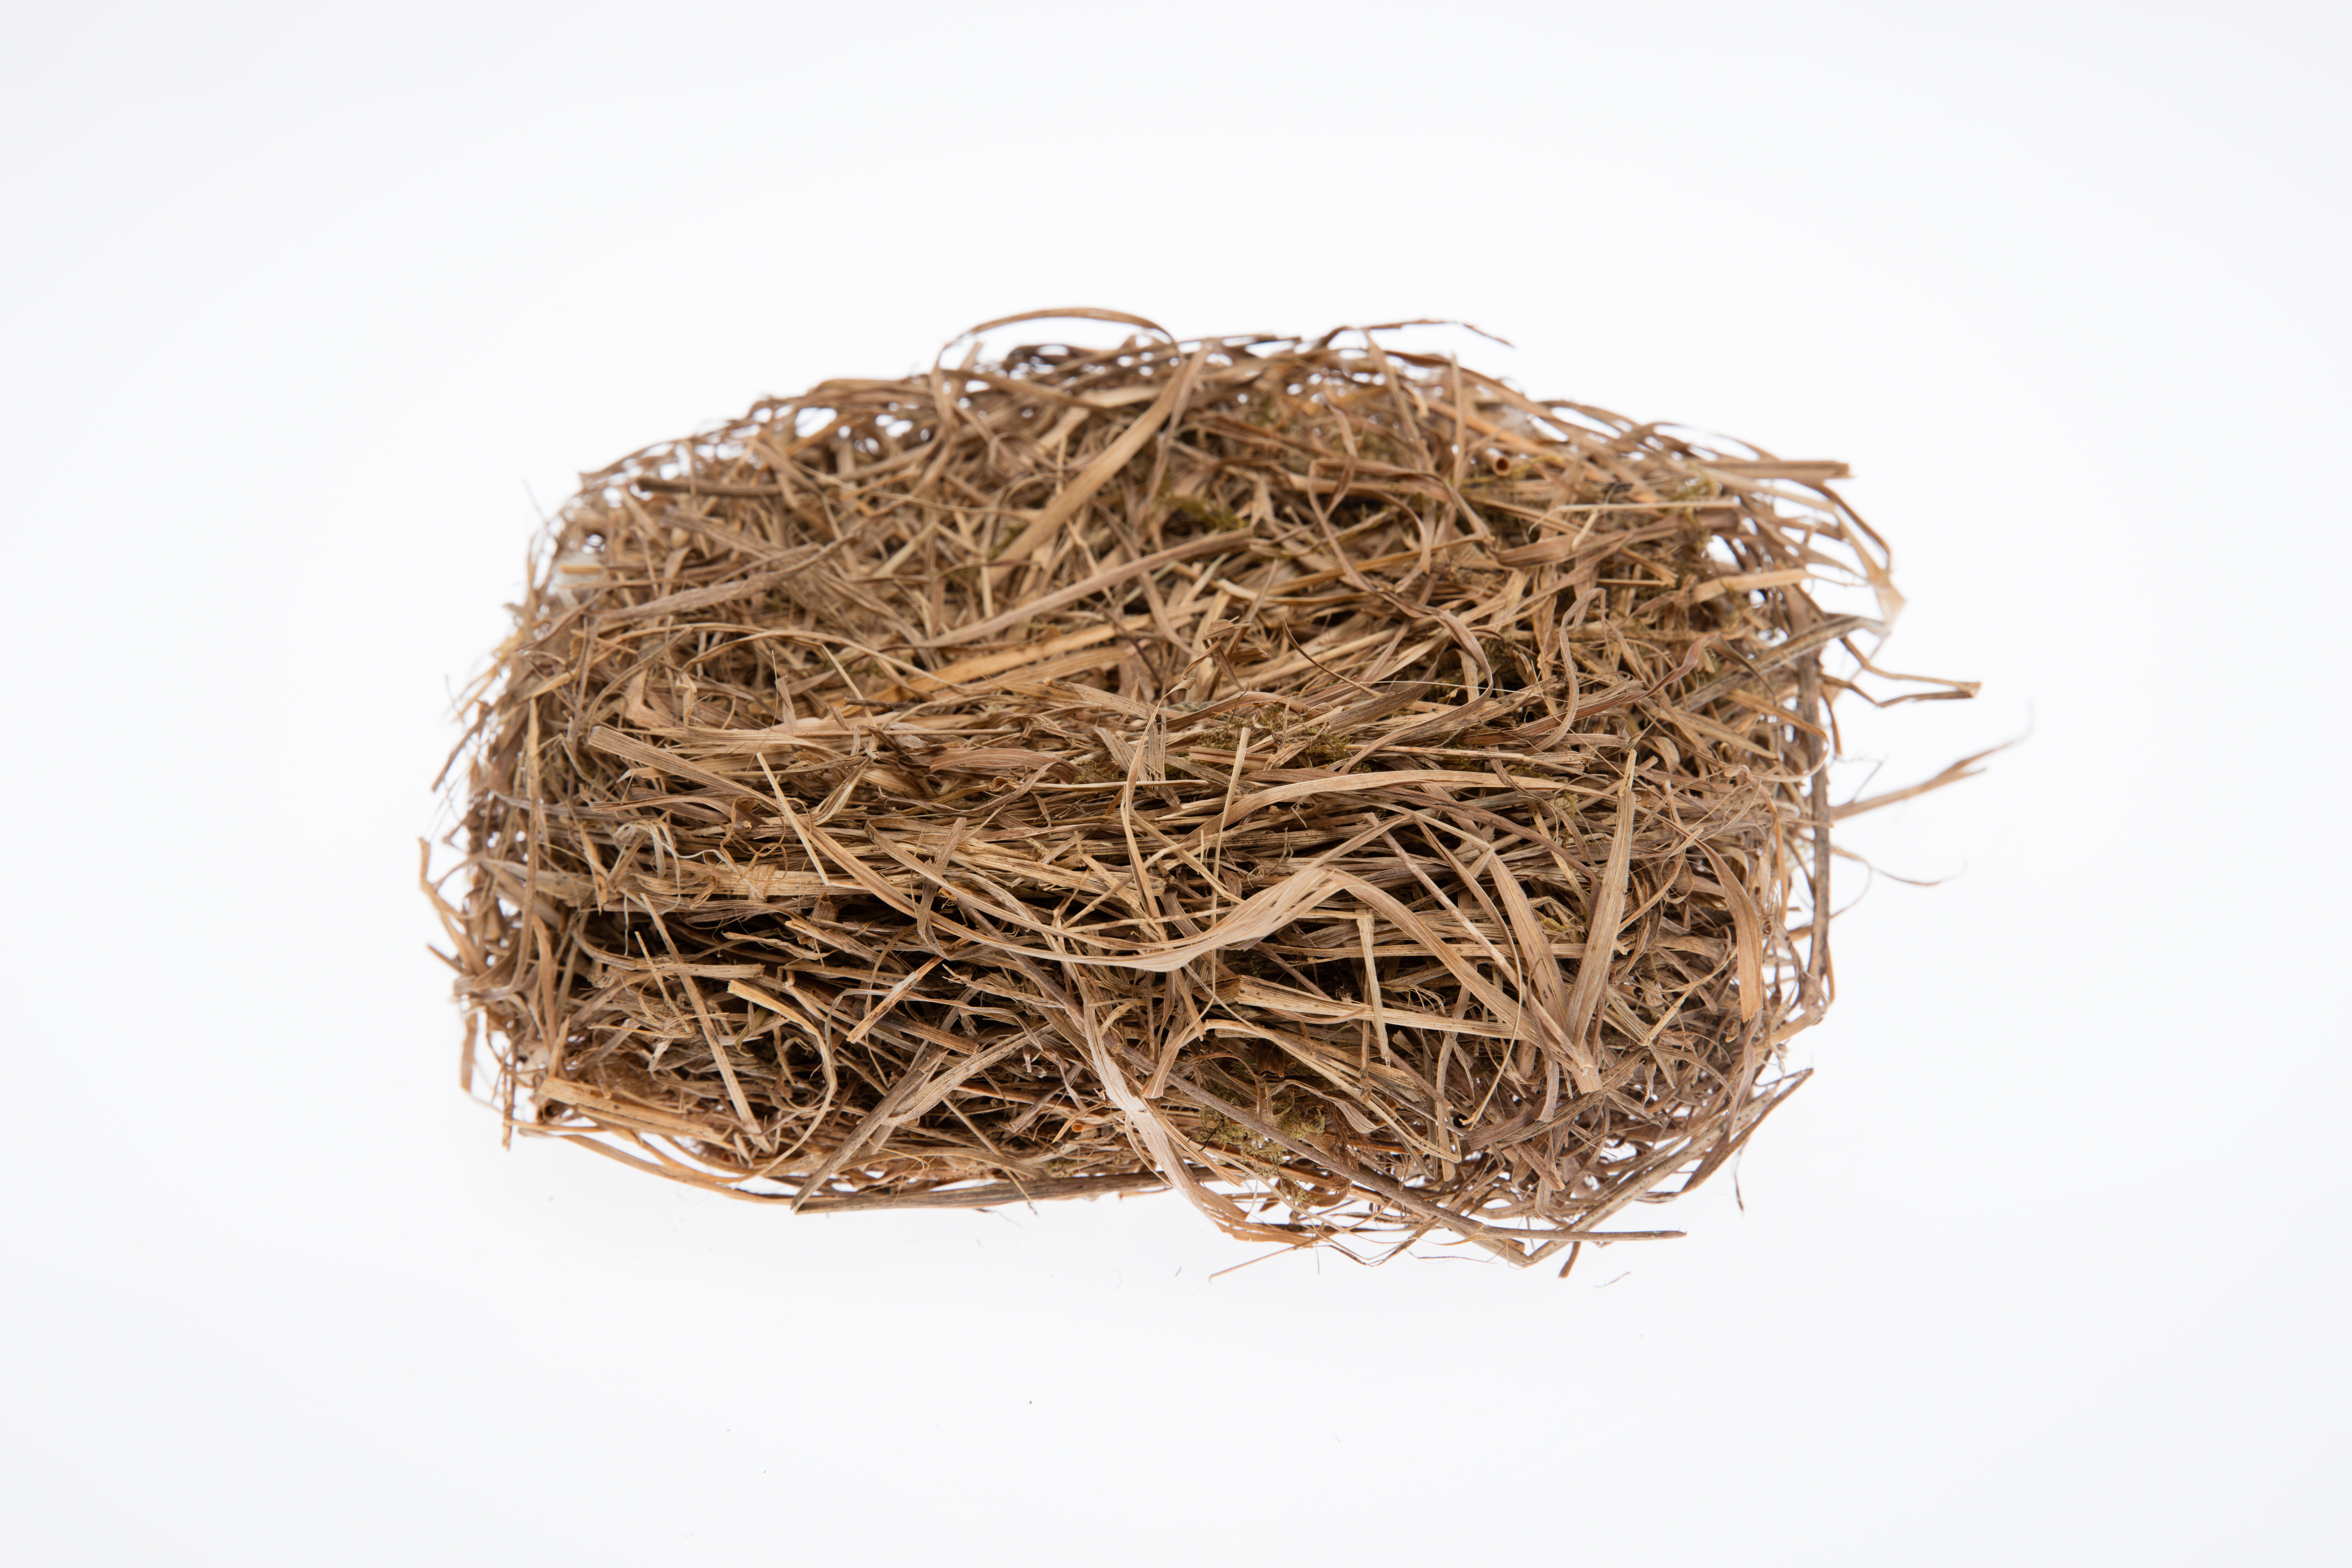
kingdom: Animalia
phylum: Chordata
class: Aves
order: Gruiformes
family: Rallidae
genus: Gallirallus
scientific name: Gallirallus philippensis
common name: Buff-banded rail
